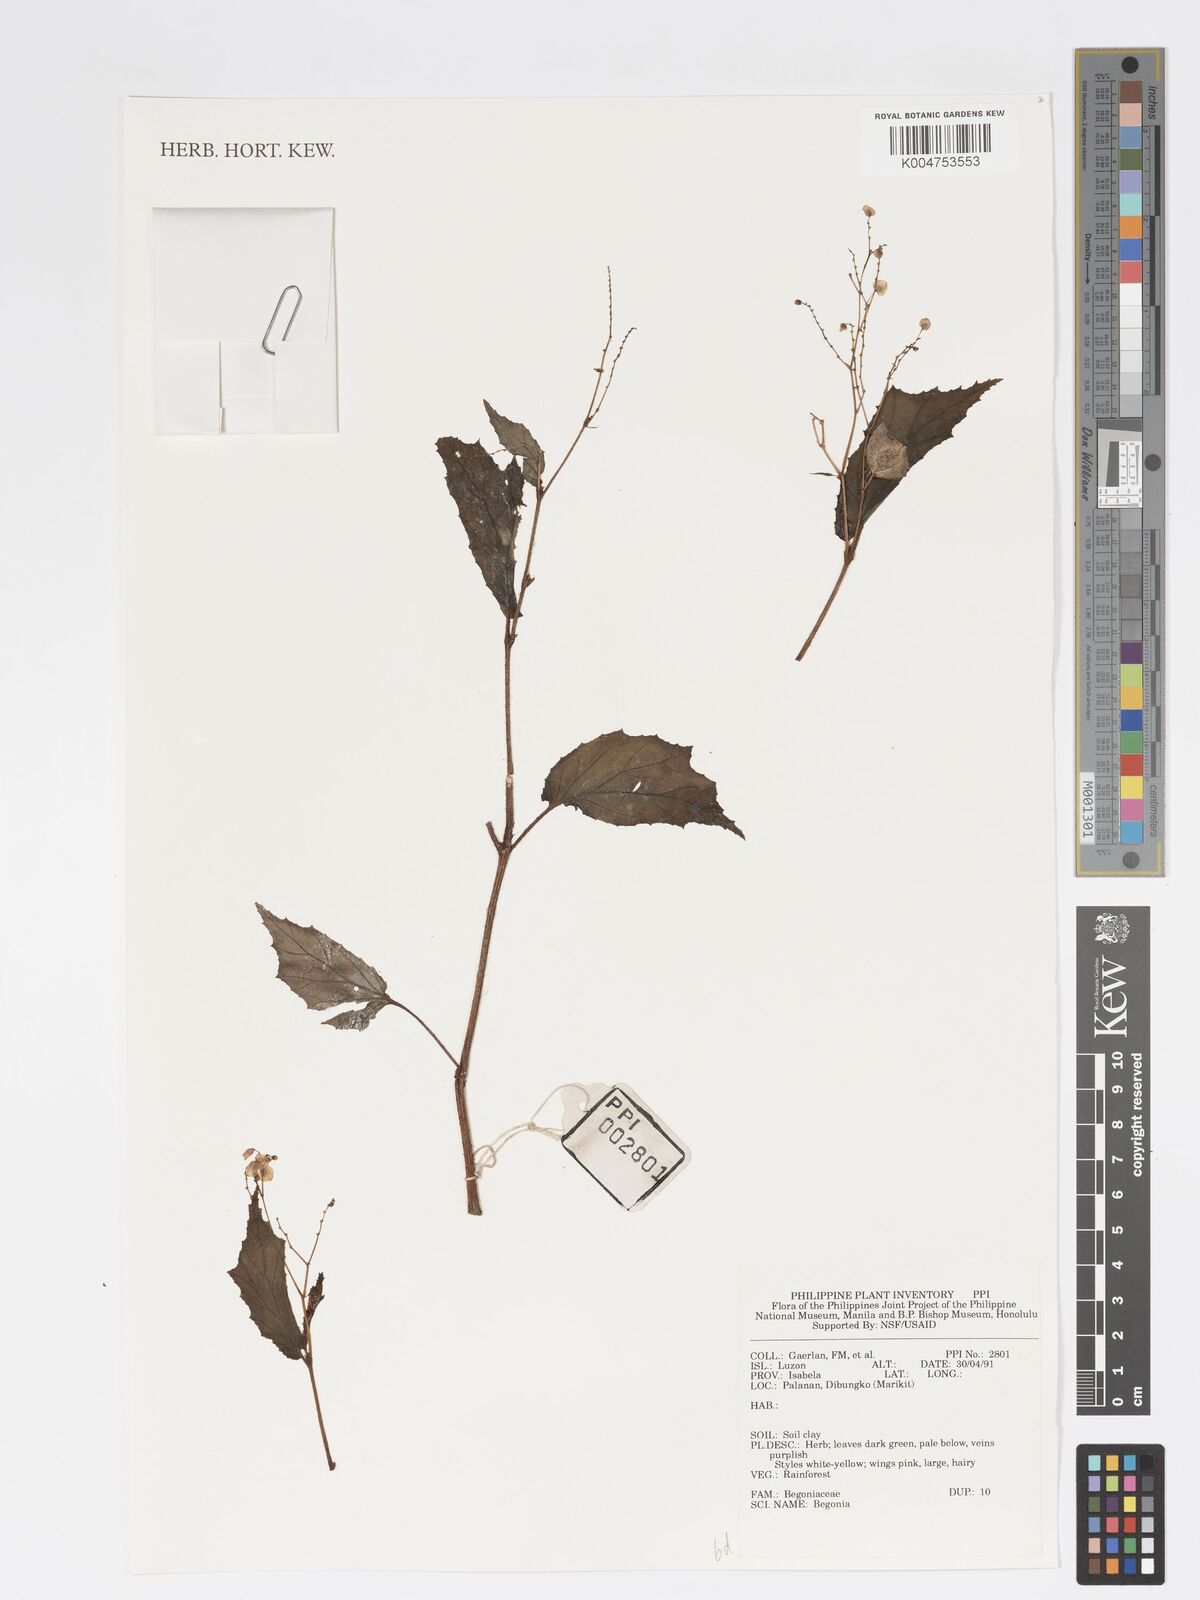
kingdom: Plantae
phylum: Tracheophyta
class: Magnoliopsida
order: Cucurbitales
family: Begoniaceae
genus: Begonia
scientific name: Begonia
